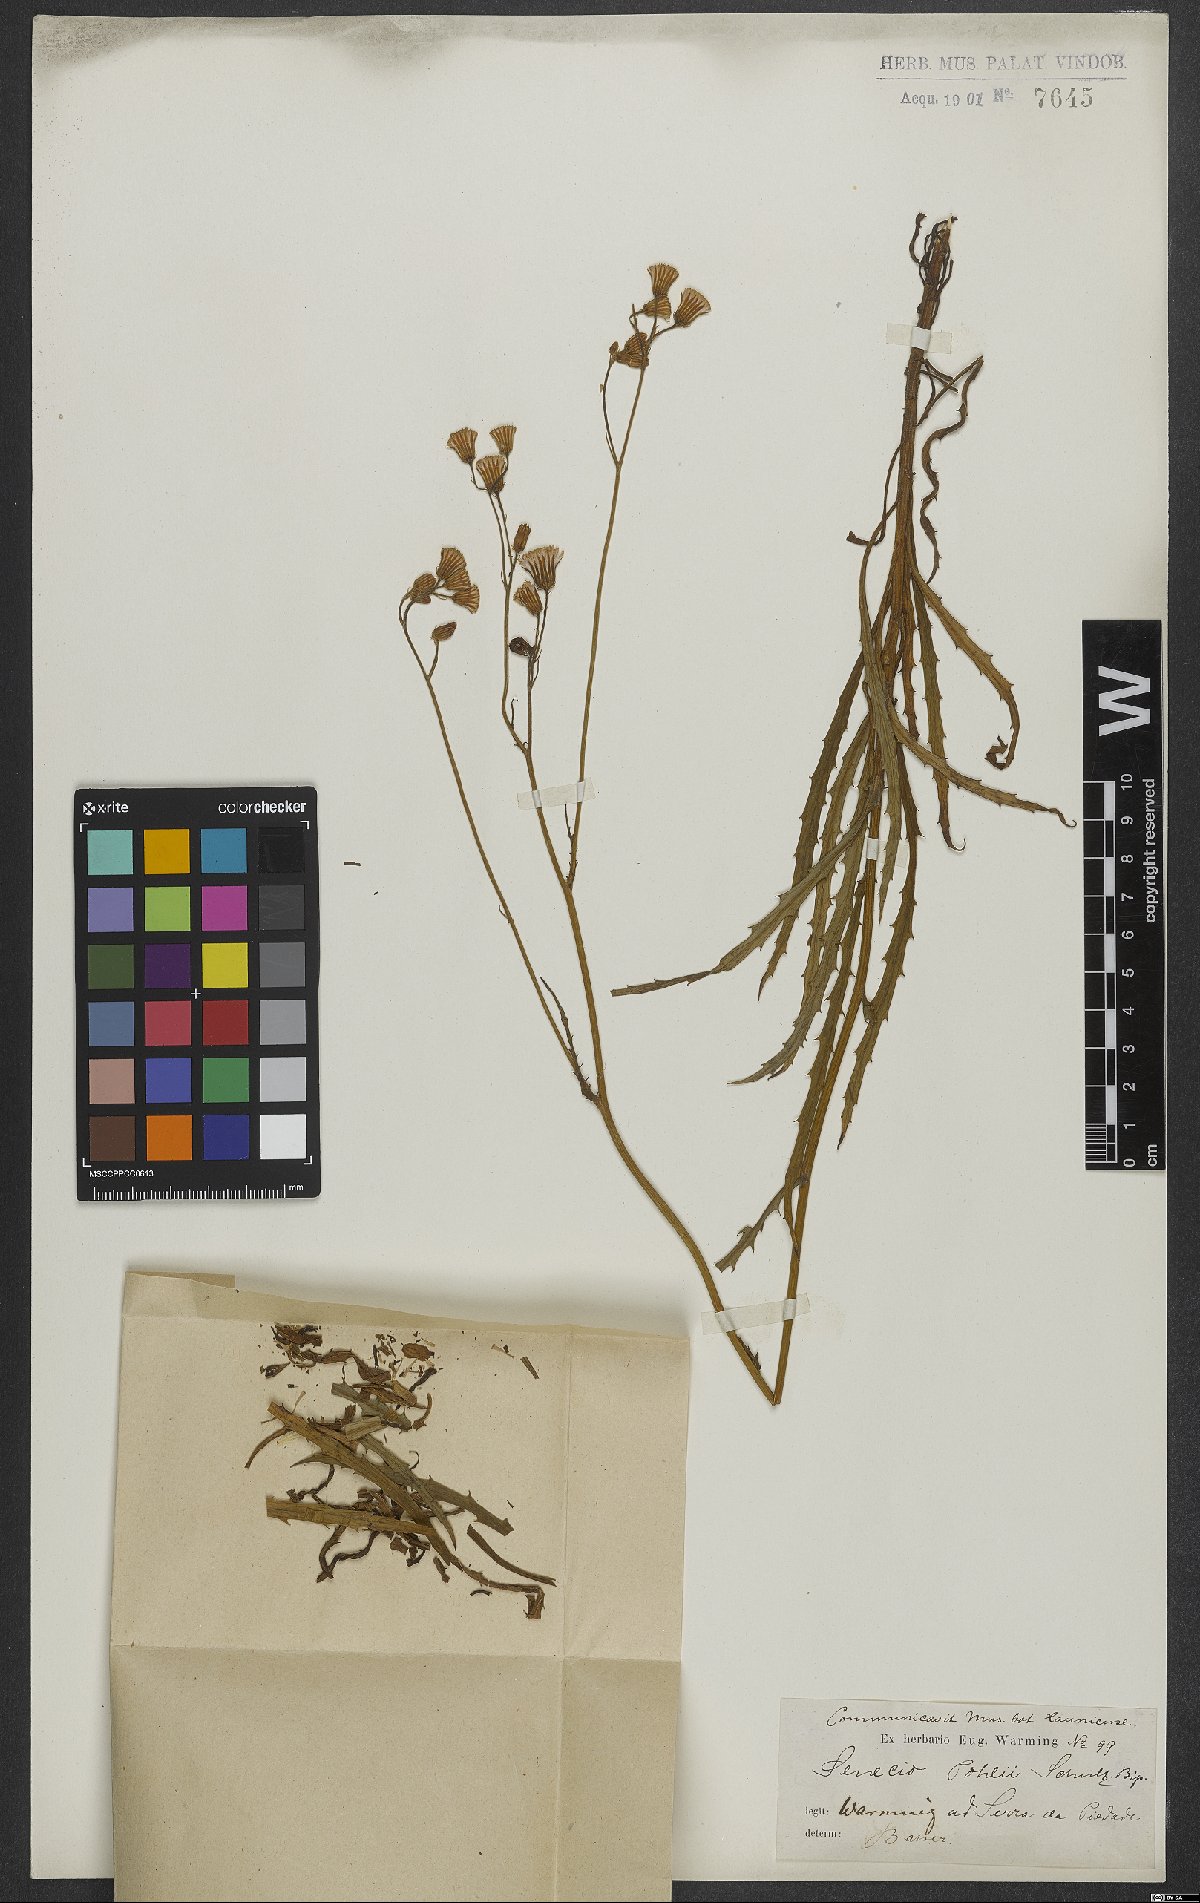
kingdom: Plantae
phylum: Tracheophyta
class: Magnoliopsida
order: Asterales
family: Asteraceae
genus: Pseudogynoxys
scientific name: Pseudogynoxys pohlii
